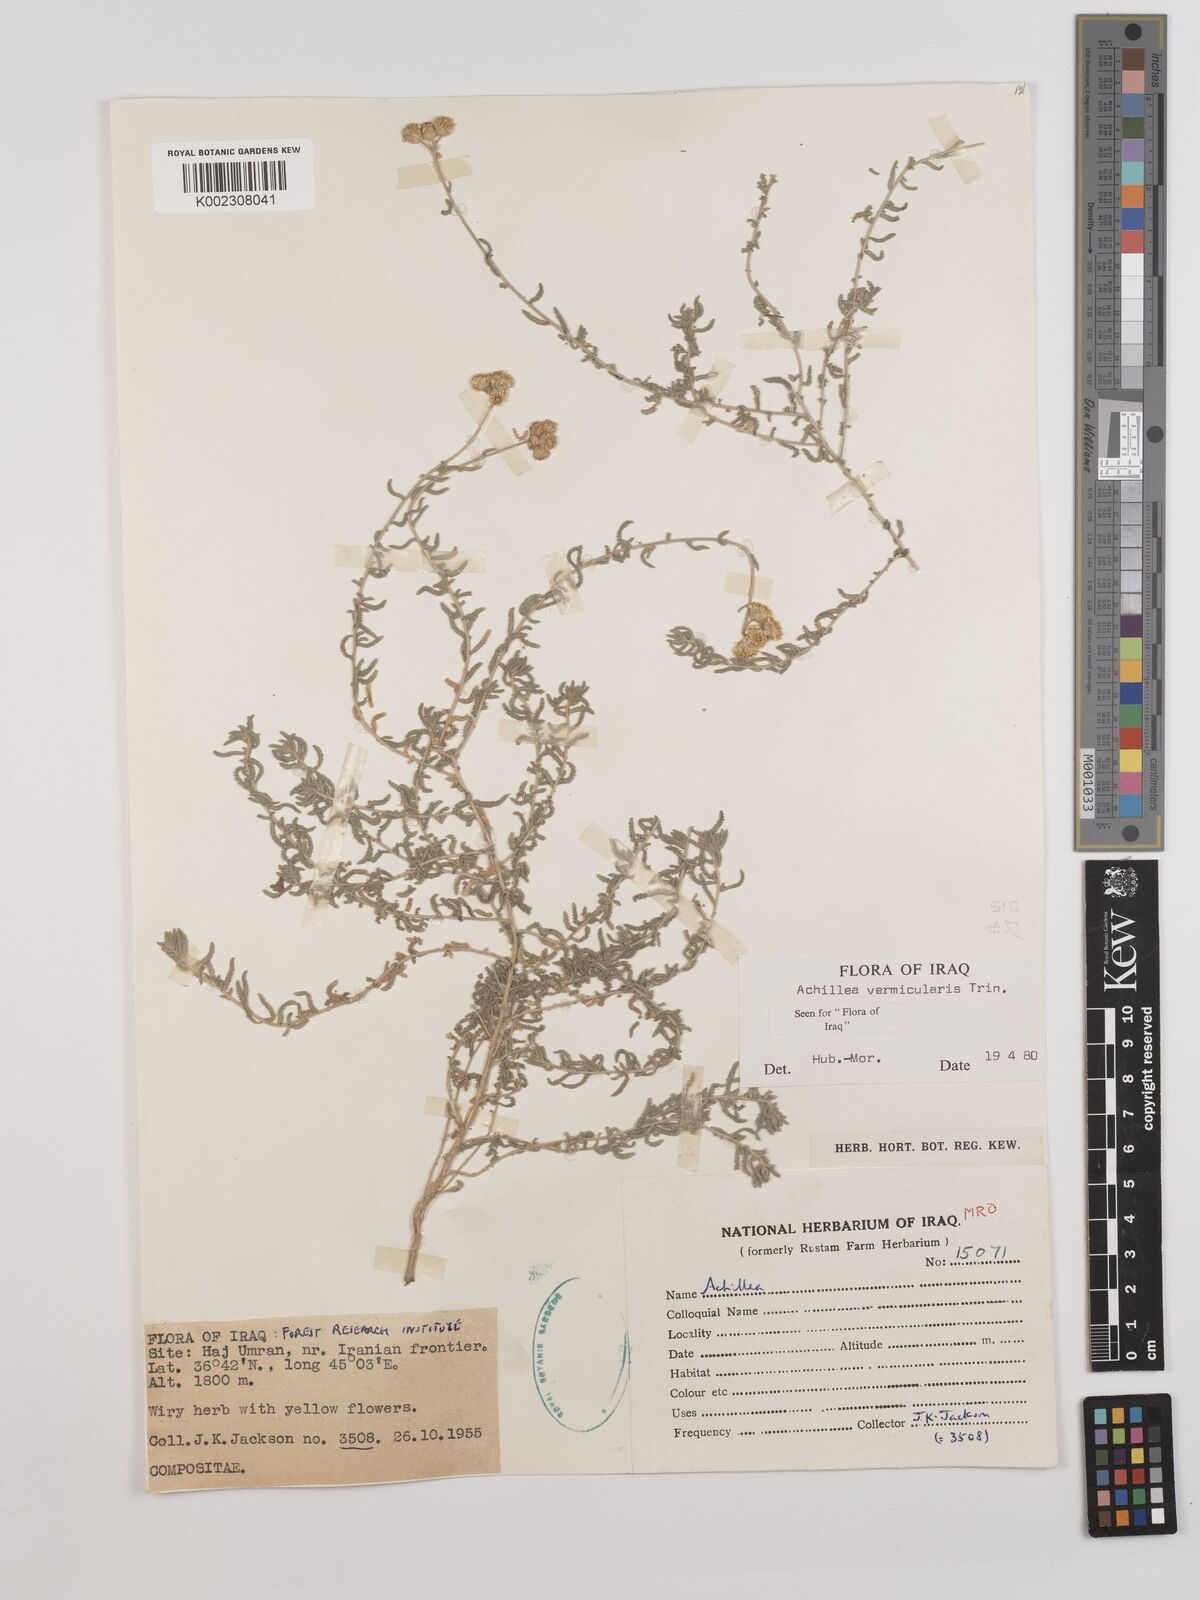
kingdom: Plantae
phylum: Tracheophyta
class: Magnoliopsida
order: Asterales
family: Asteraceae
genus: Achillea
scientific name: Achillea vermicularis
